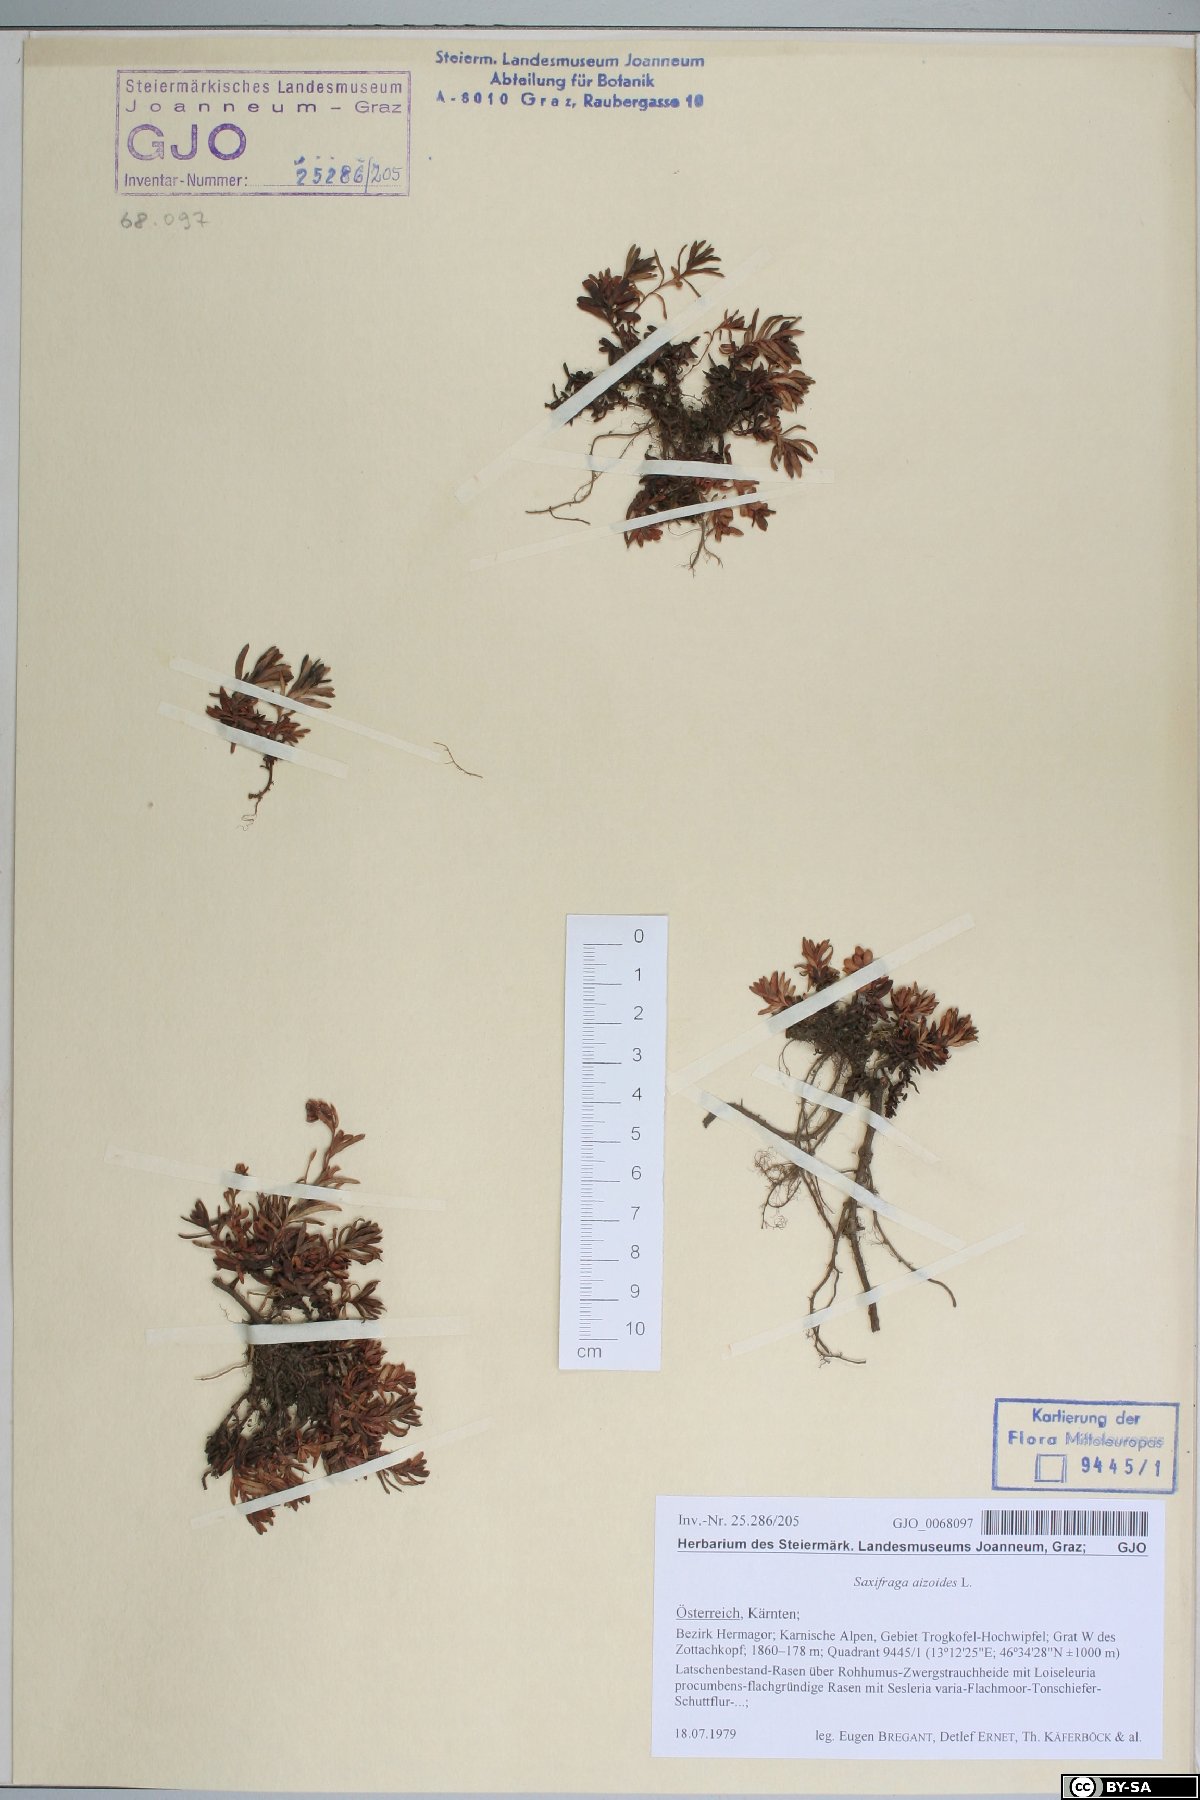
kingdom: Plantae
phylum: Tracheophyta
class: Magnoliopsida
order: Saxifragales
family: Saxifragaceae
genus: Saxifraga
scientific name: Saxifraga aizoides
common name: Yellow mountain saxifrage
